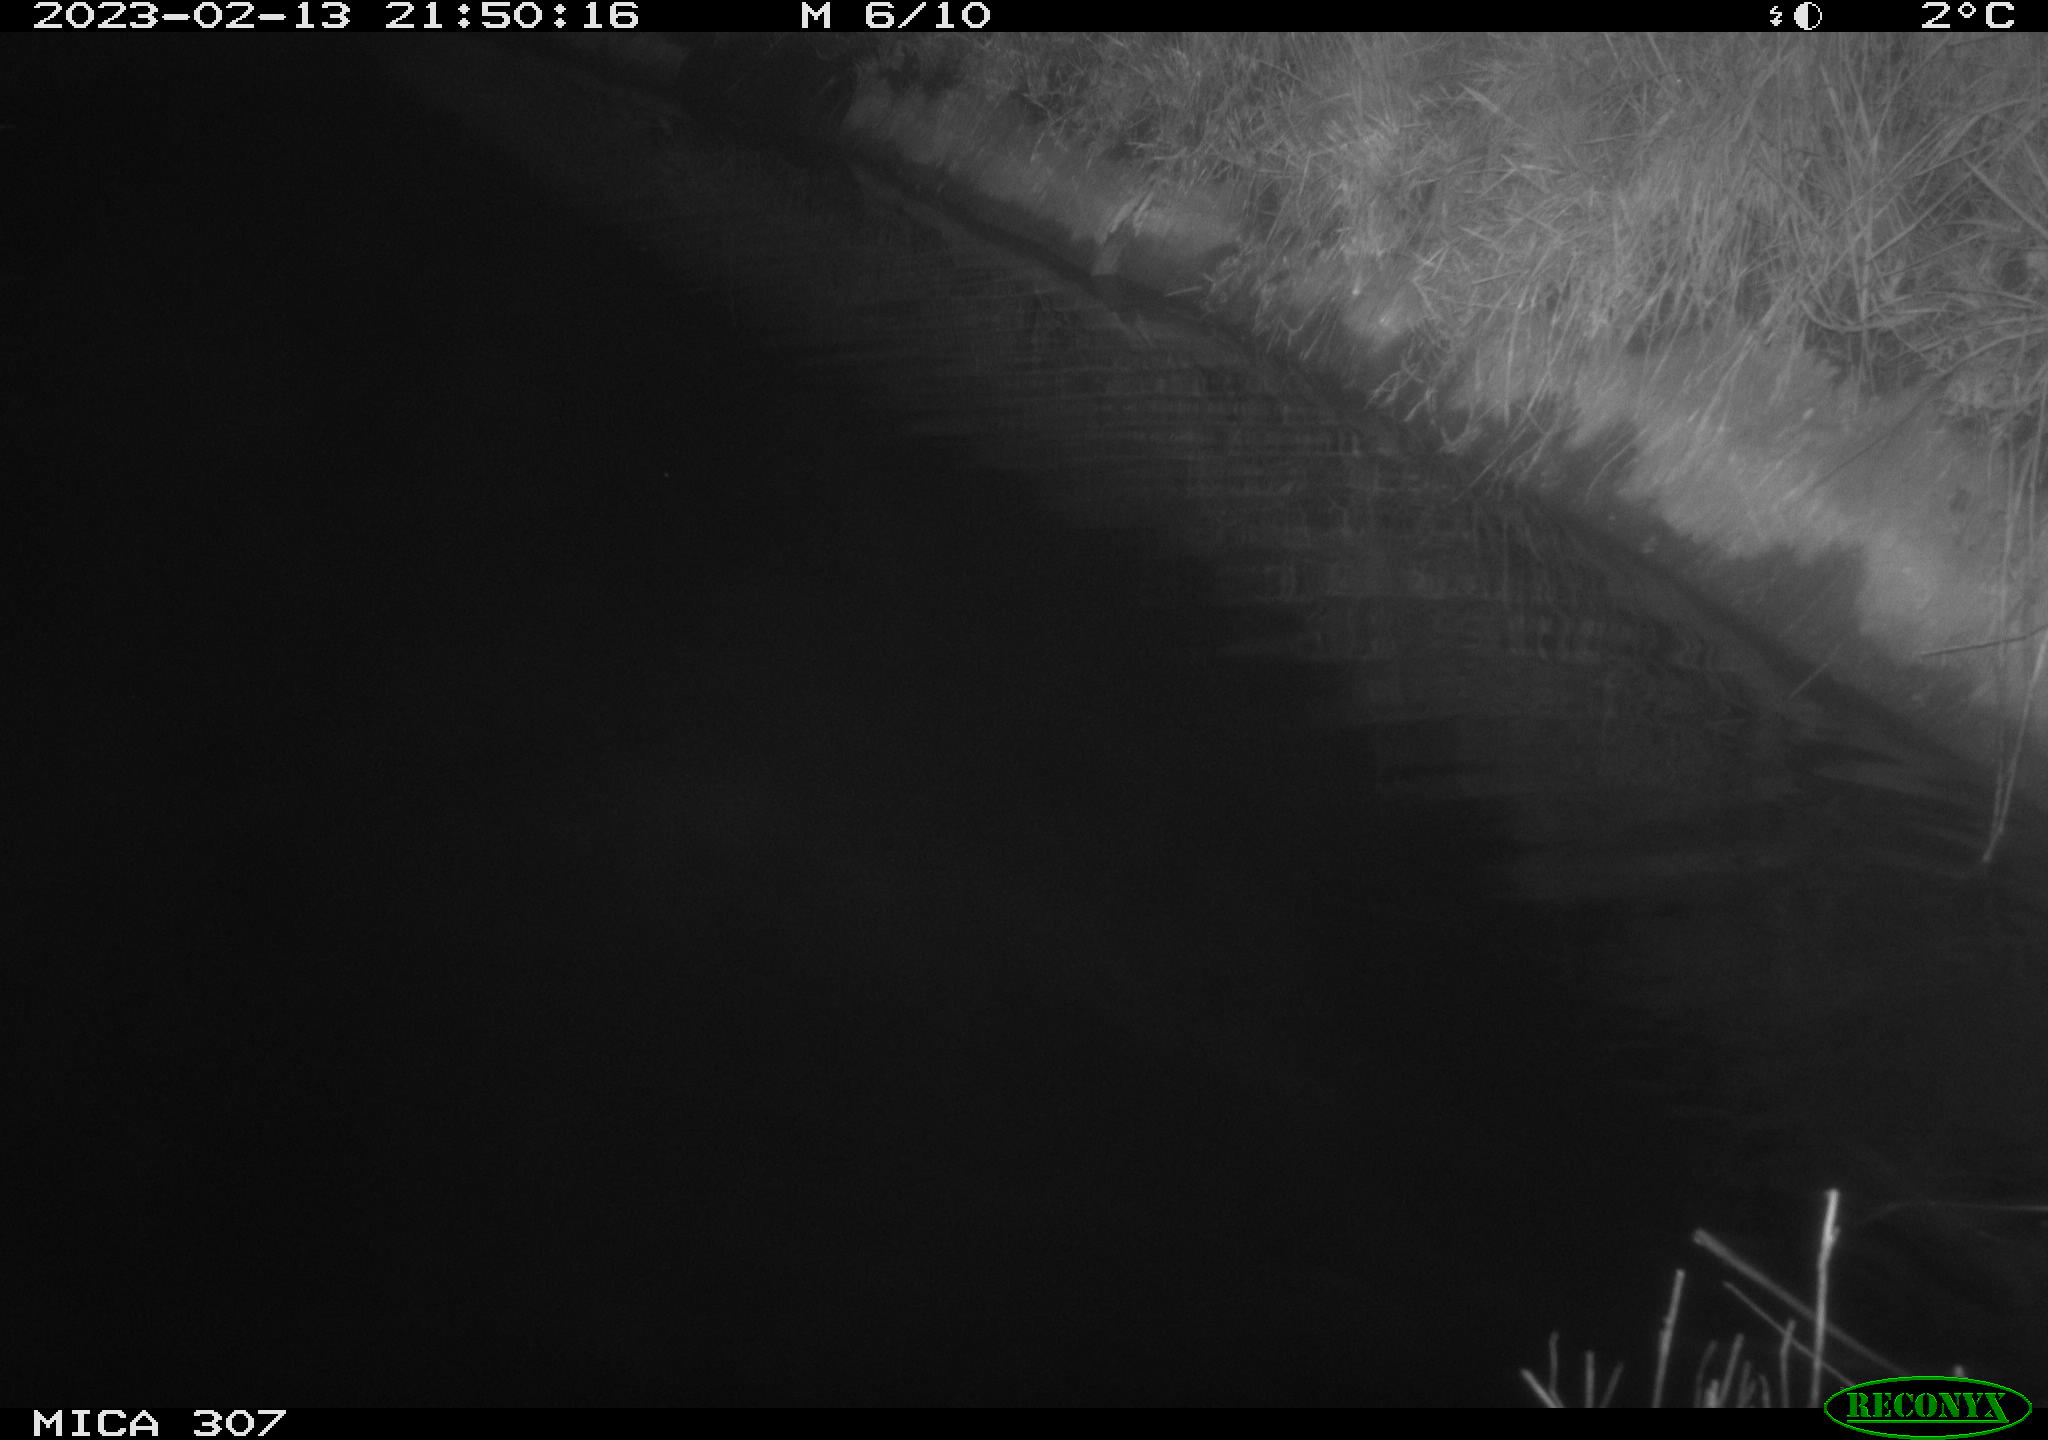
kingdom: Animalia
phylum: Chordata
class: Mammalia
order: Rodentia
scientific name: Rodentia
